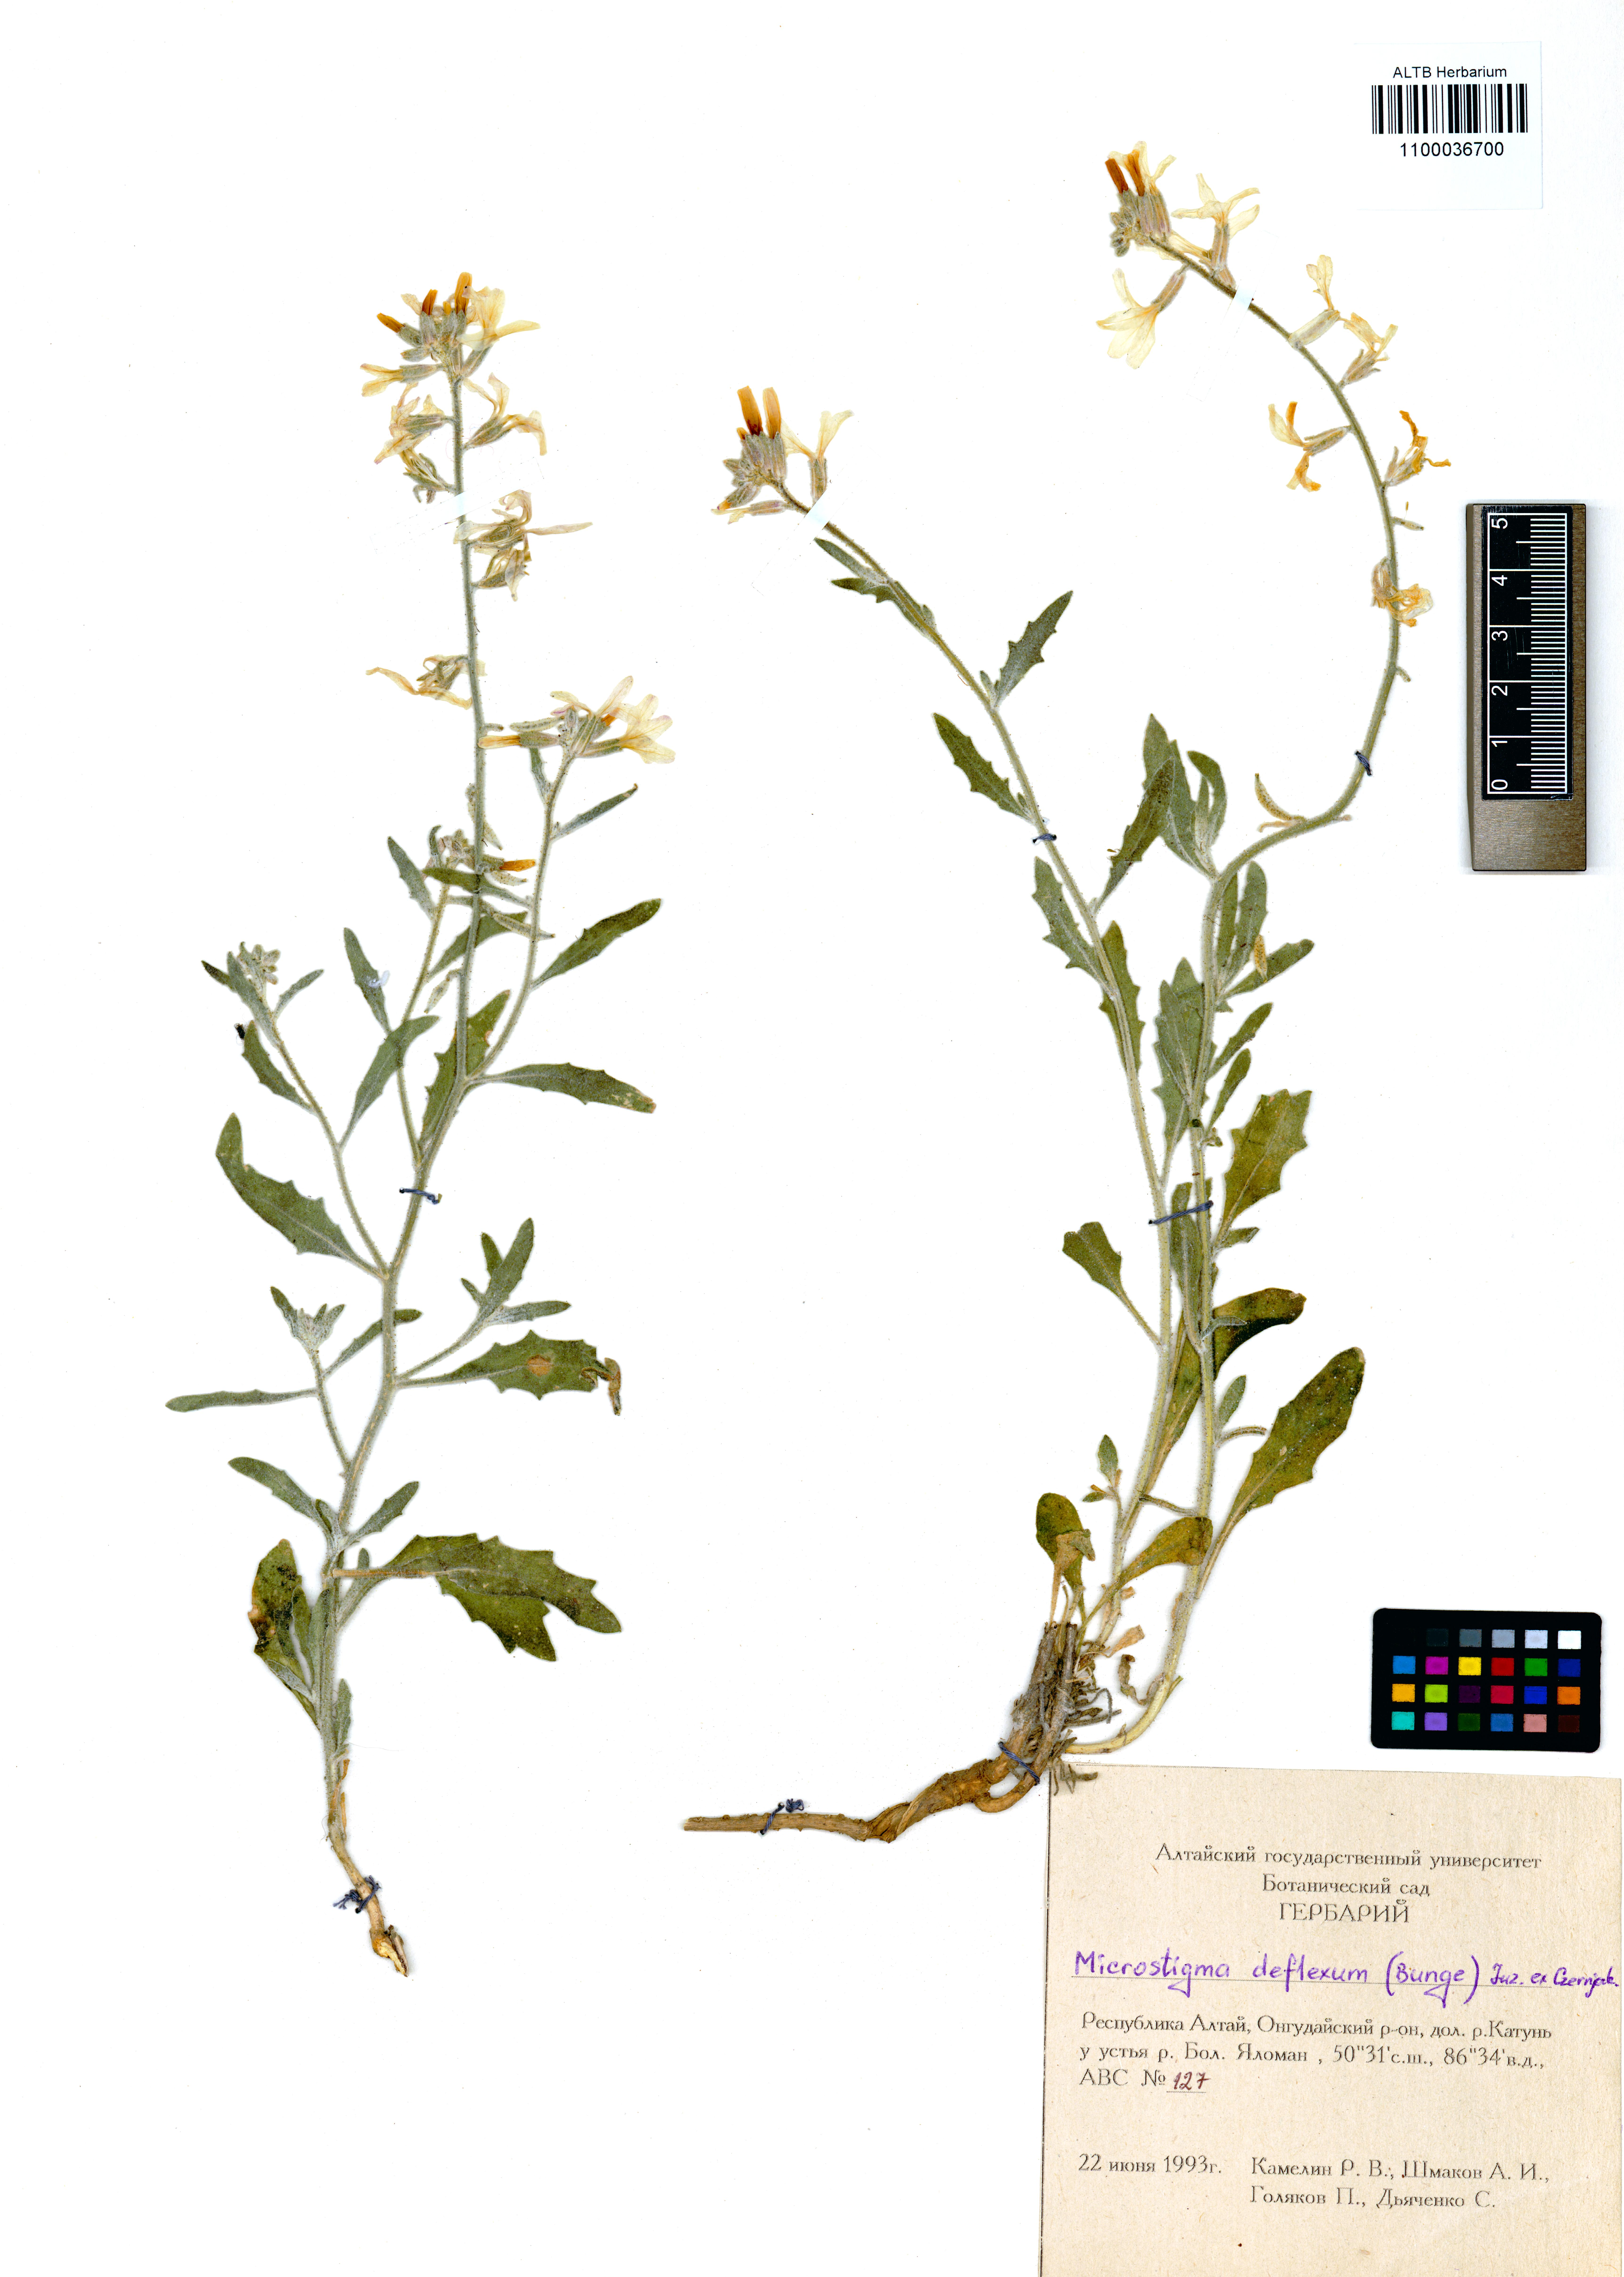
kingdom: Plantae
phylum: Tracheophyta
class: Magnoliopsida
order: Brassicales
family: Brassicaceae
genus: Microstigma
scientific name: Microstigma deflexum
